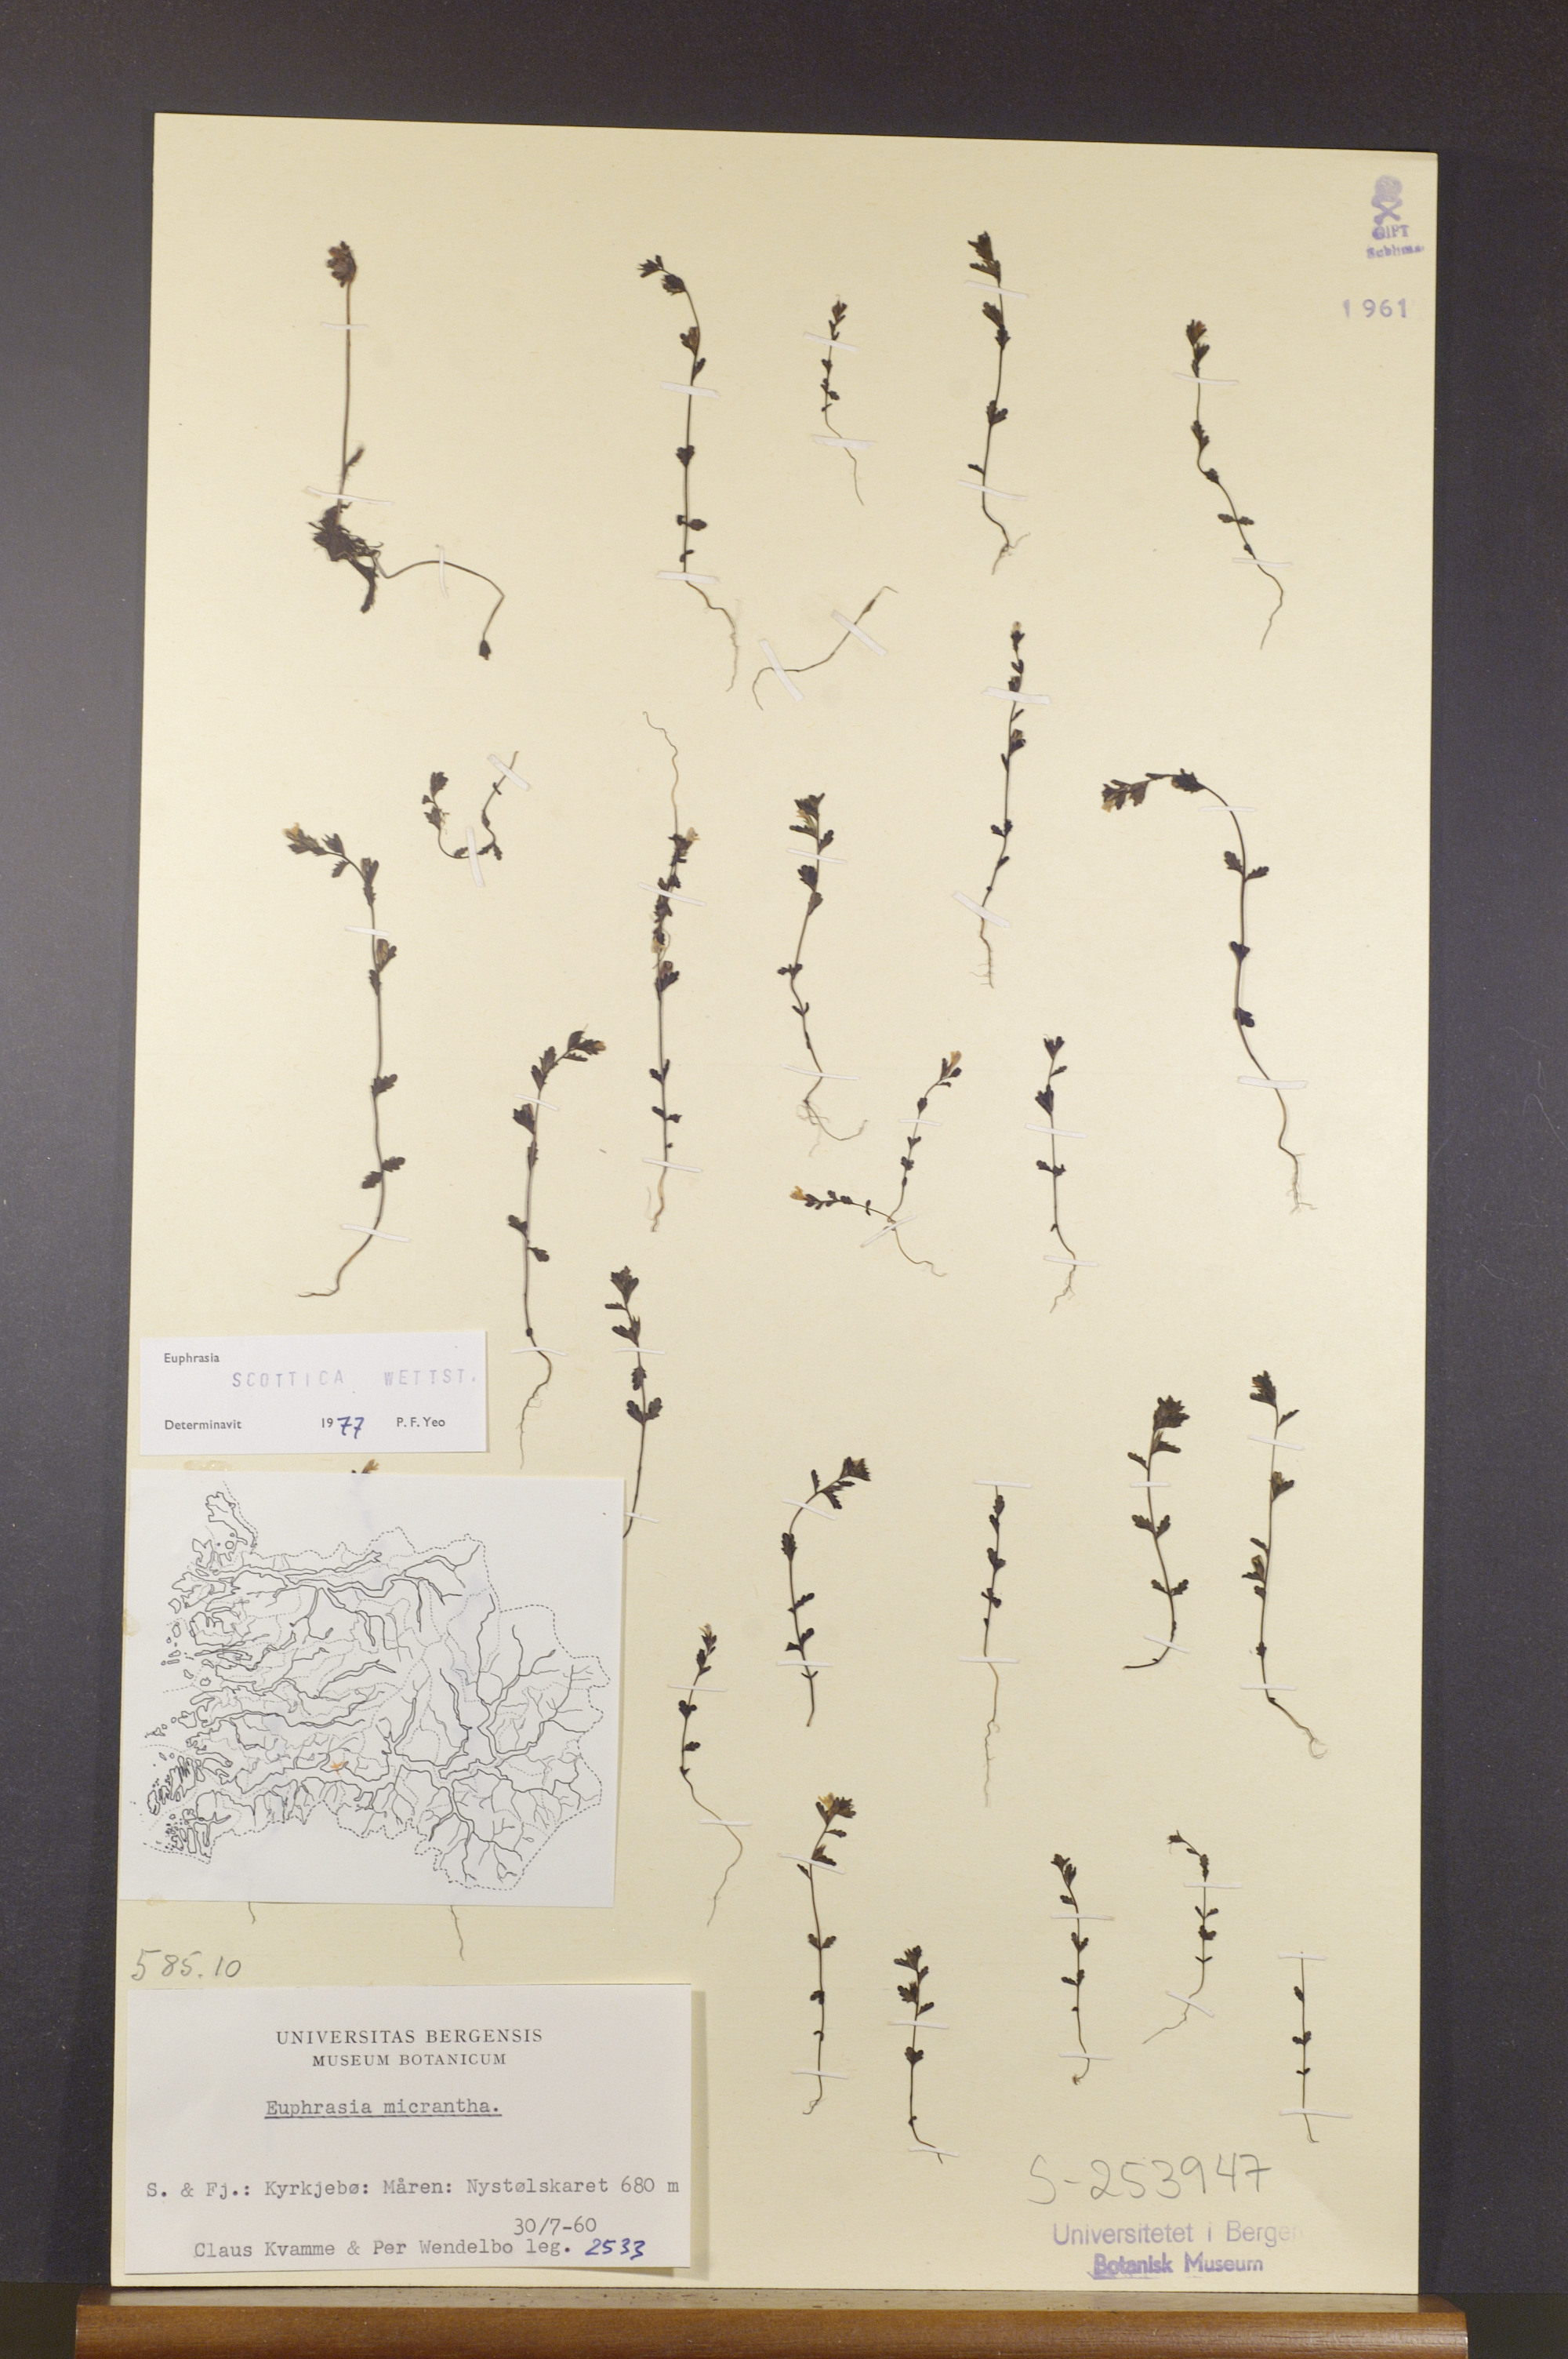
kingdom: Plantae
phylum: Tracheophyta
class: Magnoliopsida
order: Lamiales
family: Orobanchaceae
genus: Euphrasia
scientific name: Euphrasia scottica
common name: Slender scottish eyebright
